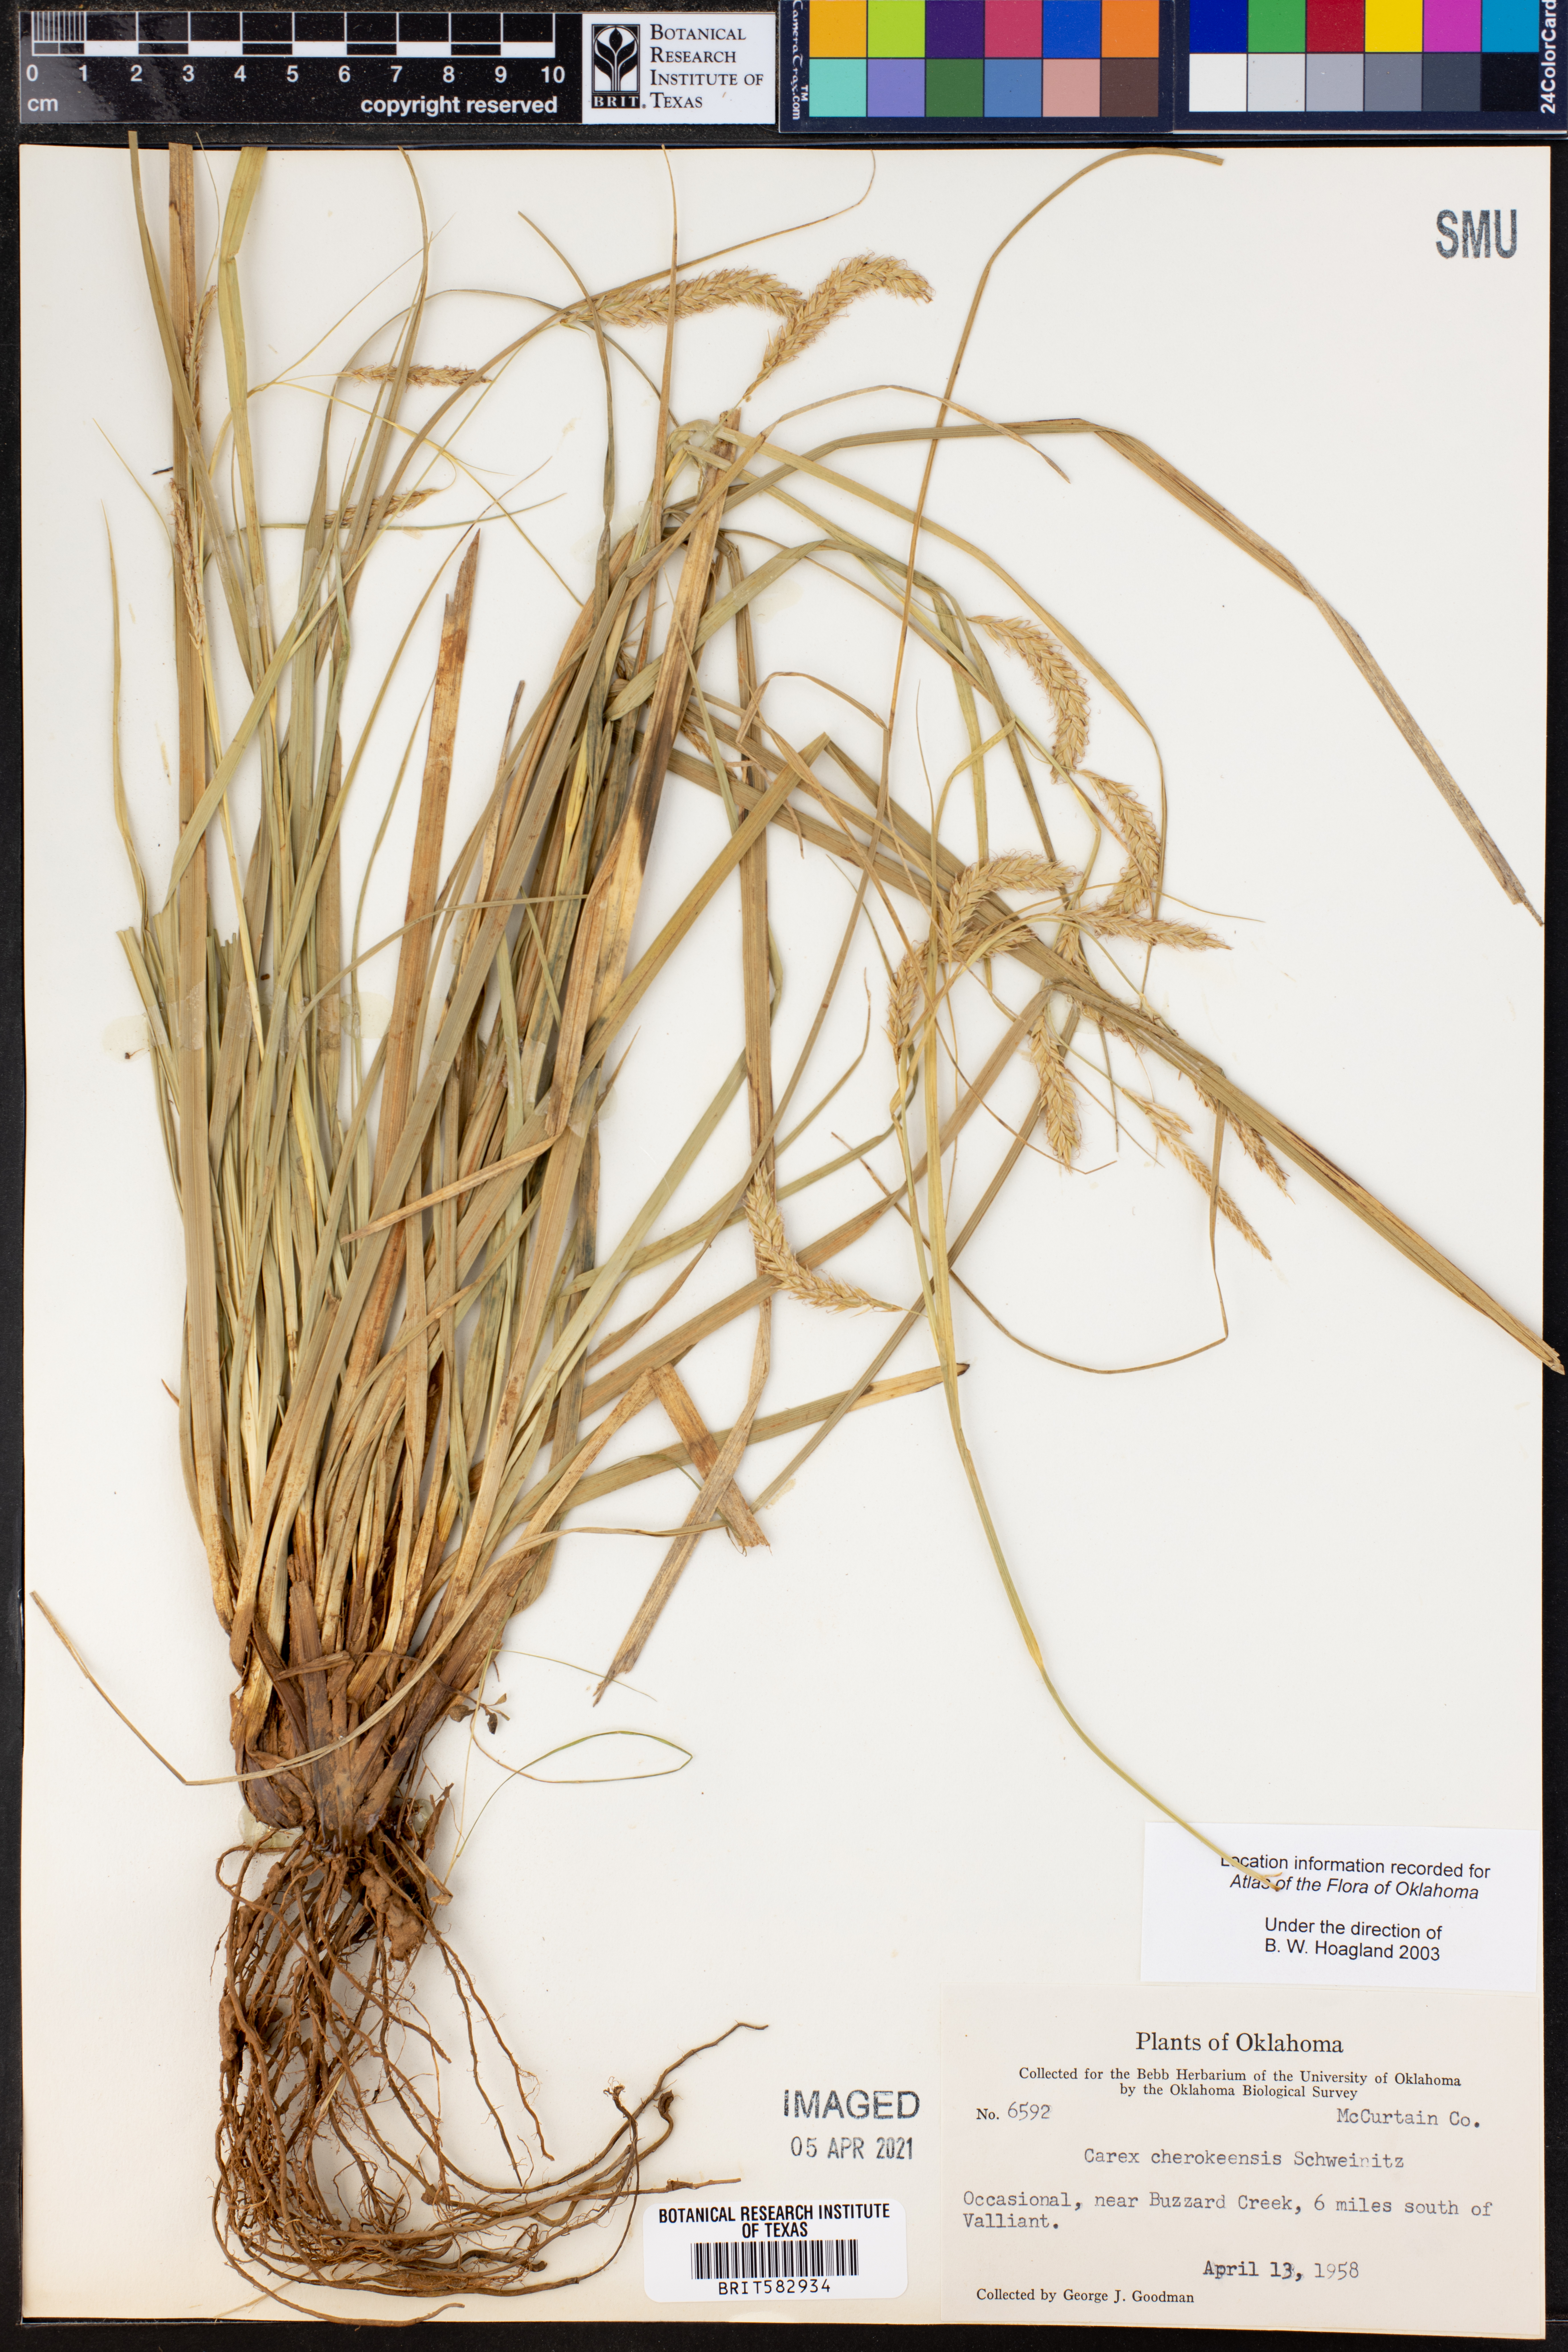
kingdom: Plantae
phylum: Tracheophyta
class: Liliopsida
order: Poales
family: Cyperaceae
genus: Carex
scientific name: Carex cherokeensis
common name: Cherokee sedge
